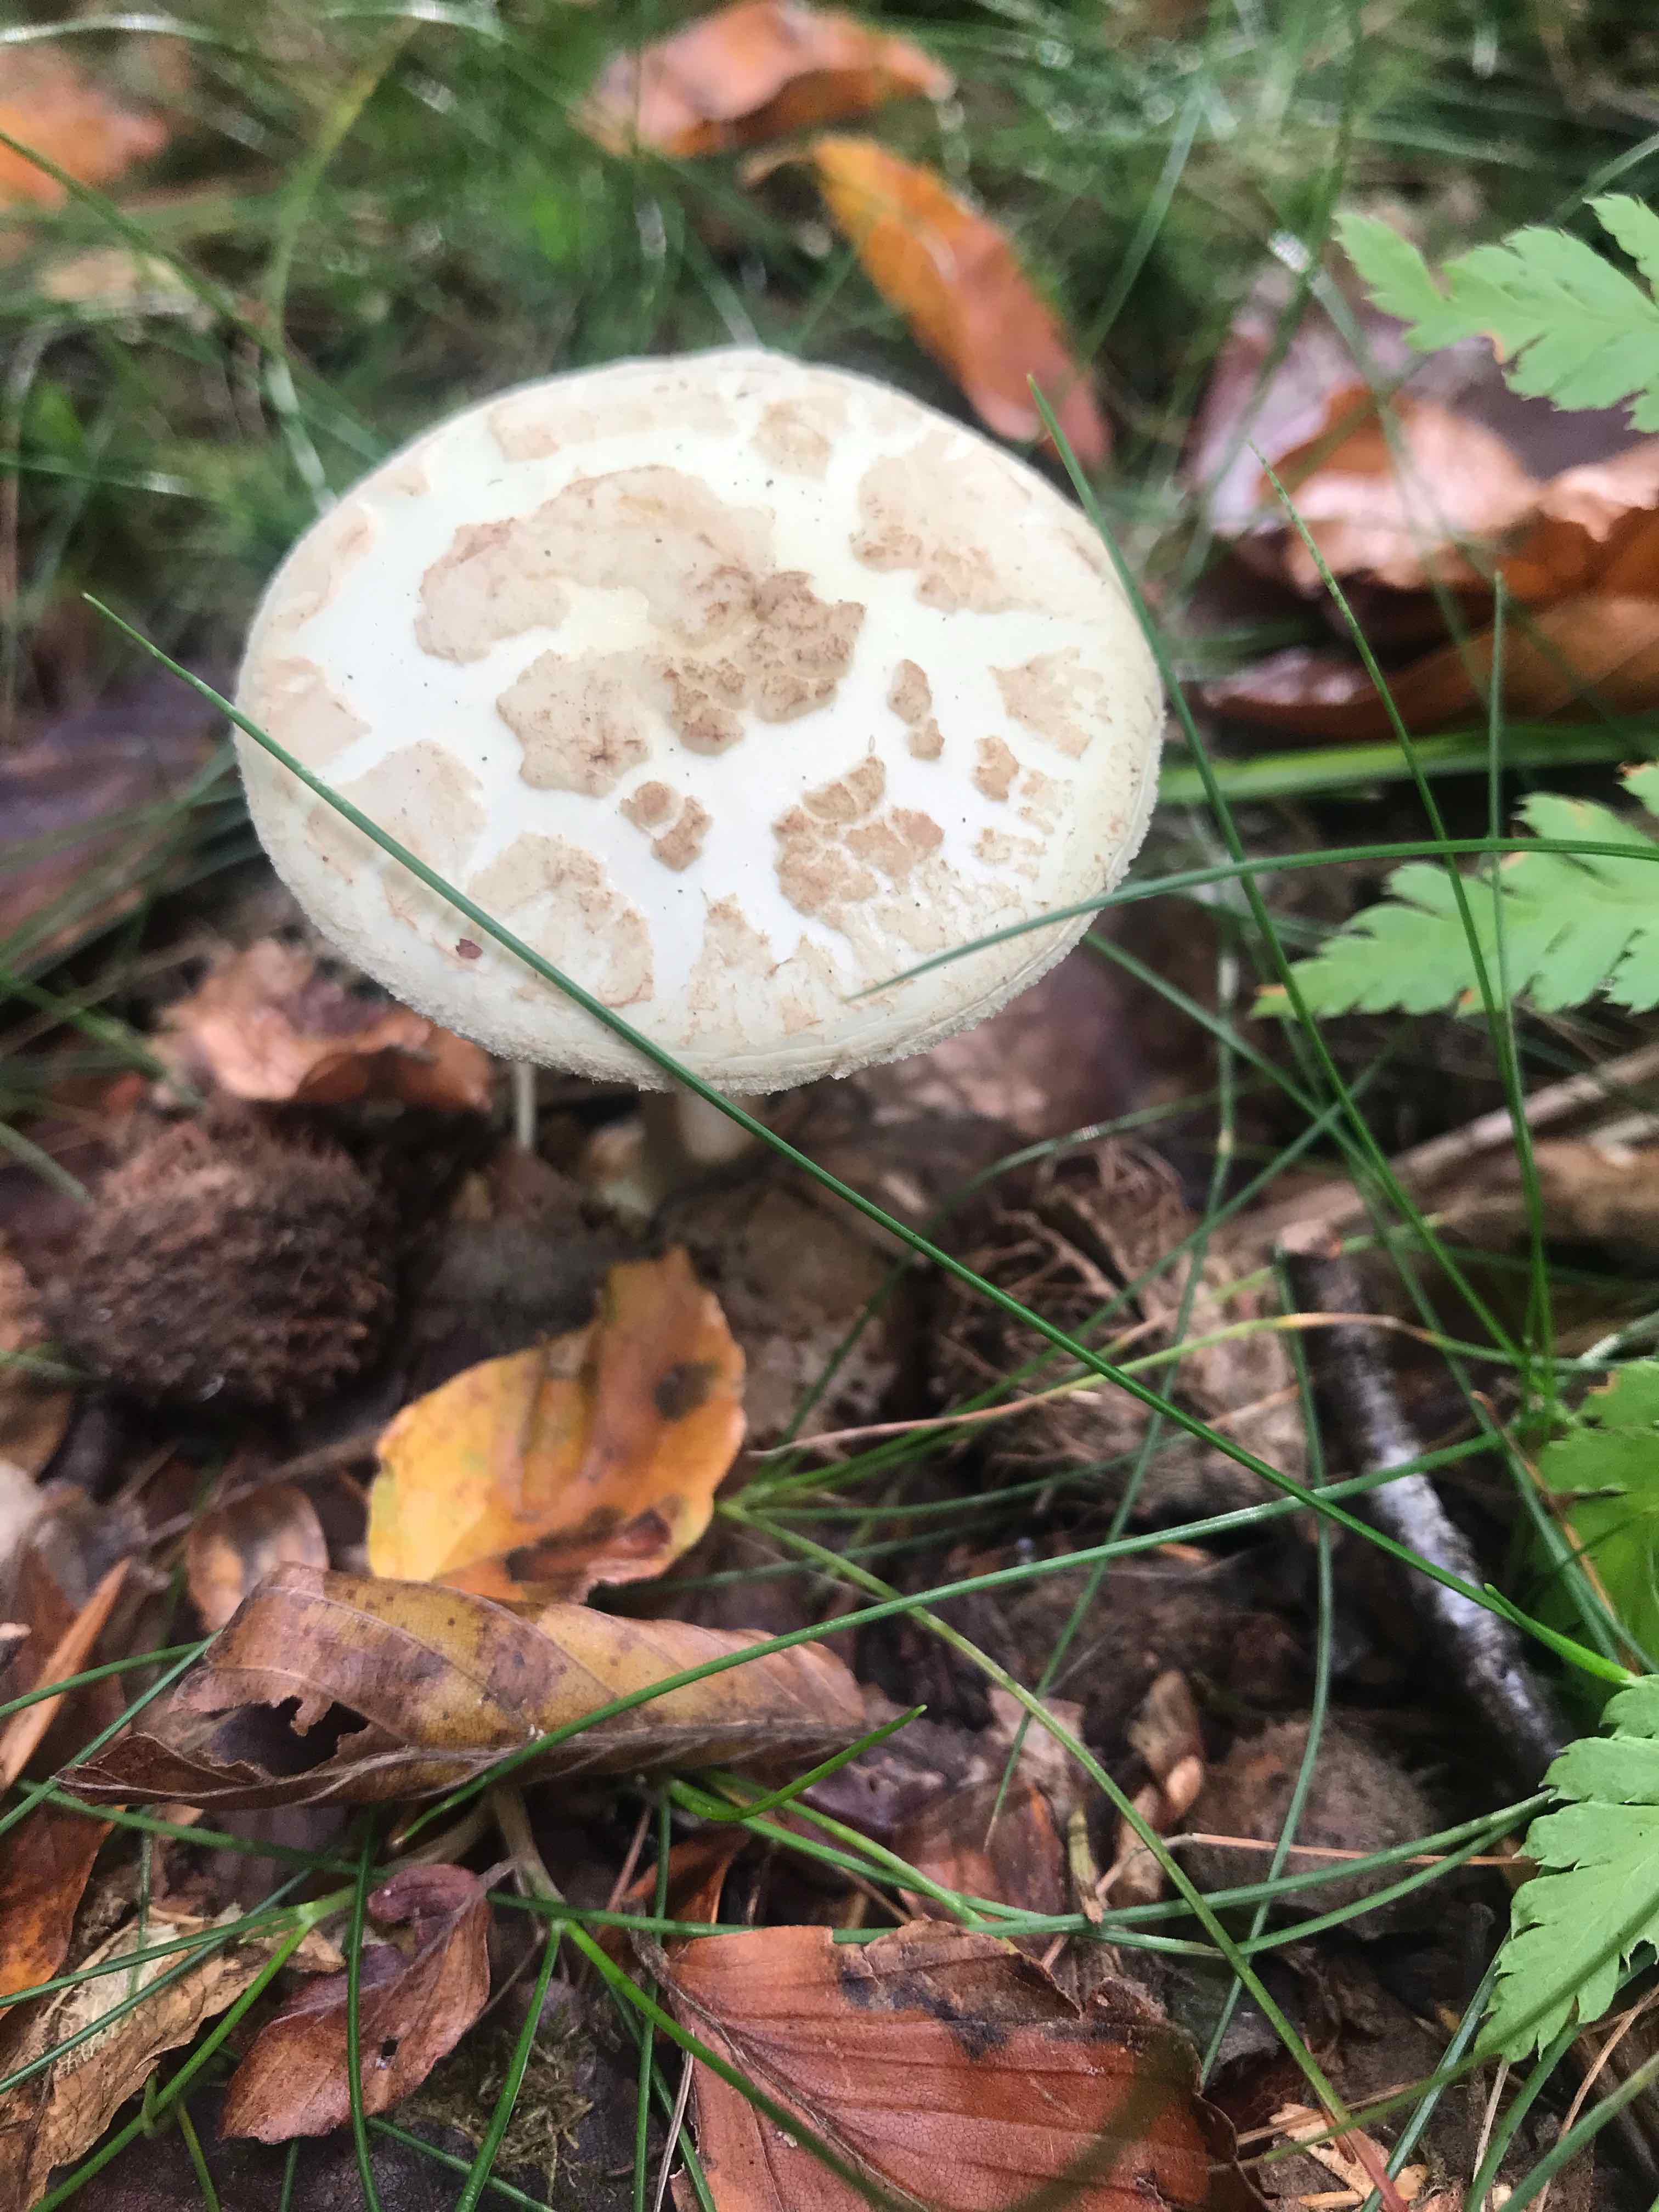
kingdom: Fungi
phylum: Basidiomycota
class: Agaricomycetes
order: Agaricales
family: Amanitaceae
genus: Amanita
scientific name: Amanita citrina
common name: kugleknoldet fluesvamp
